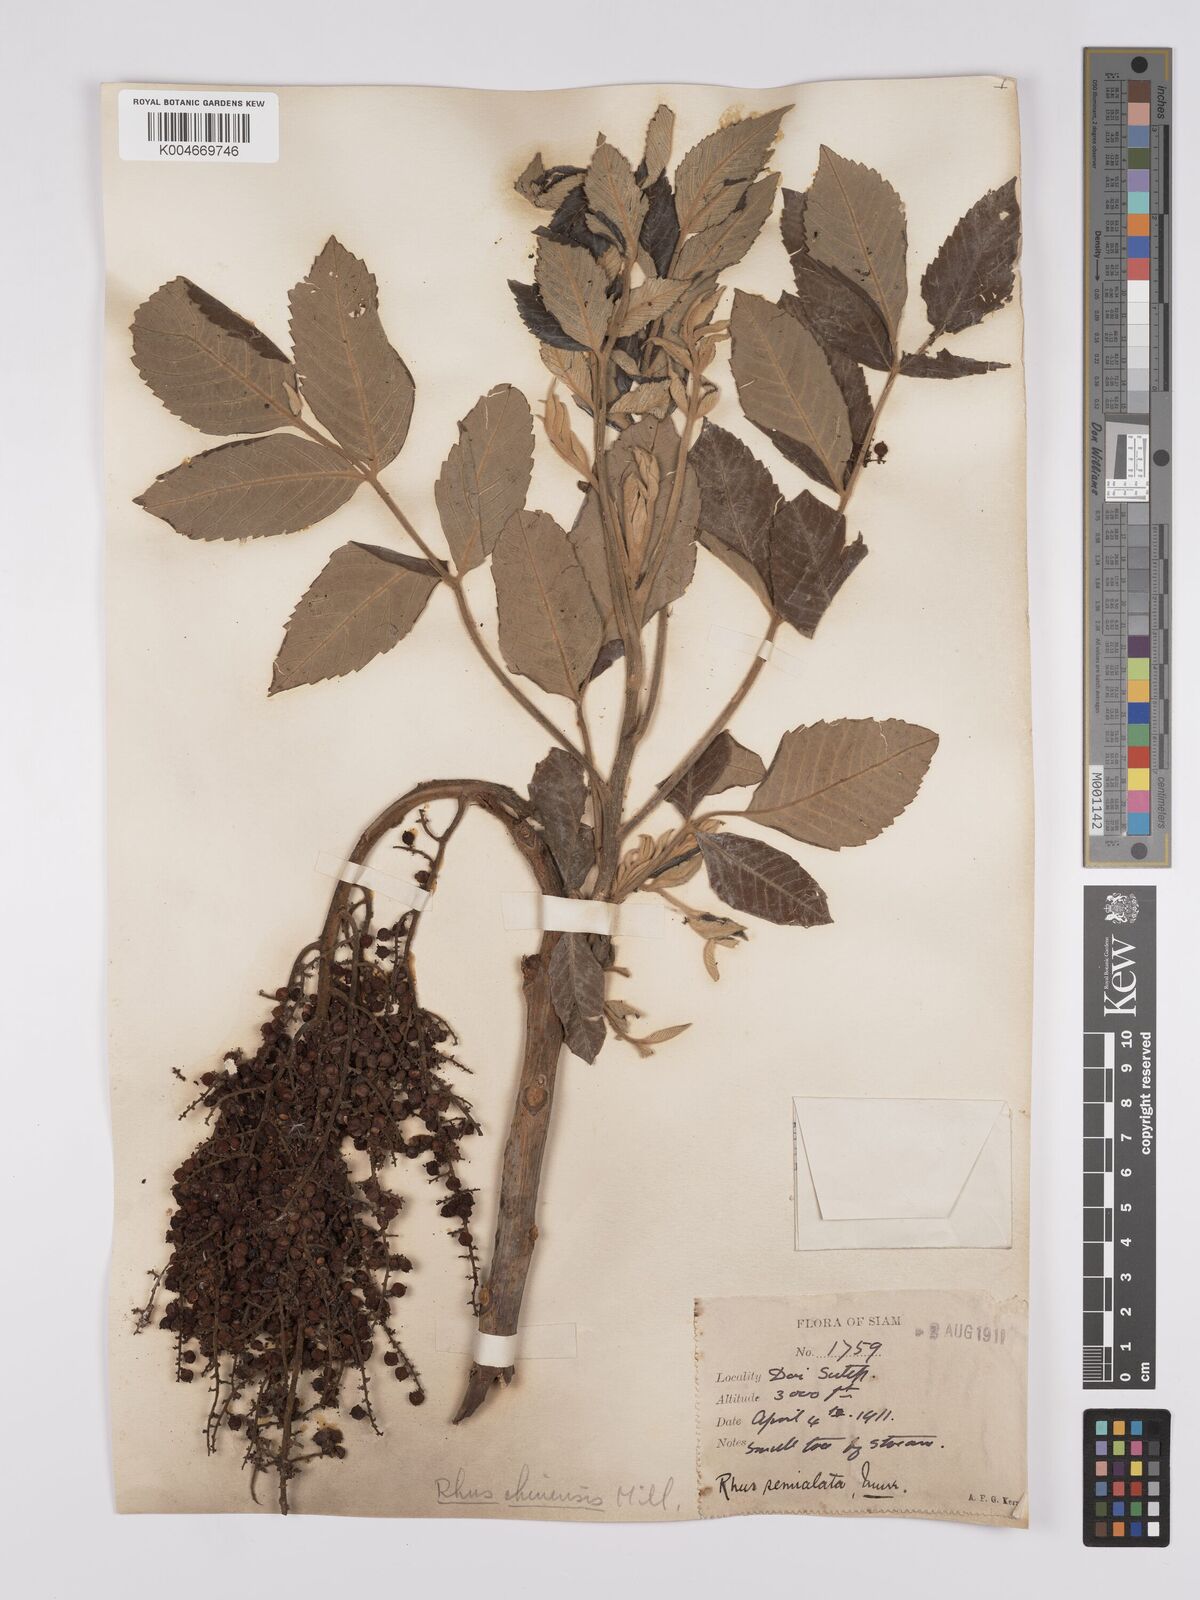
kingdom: Plantae
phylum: Tracheophyta
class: Magnoliopsida
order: Sapindales
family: Anacardiaceae
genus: Rhus
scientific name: Rhus chinensis
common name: Chinese gall
